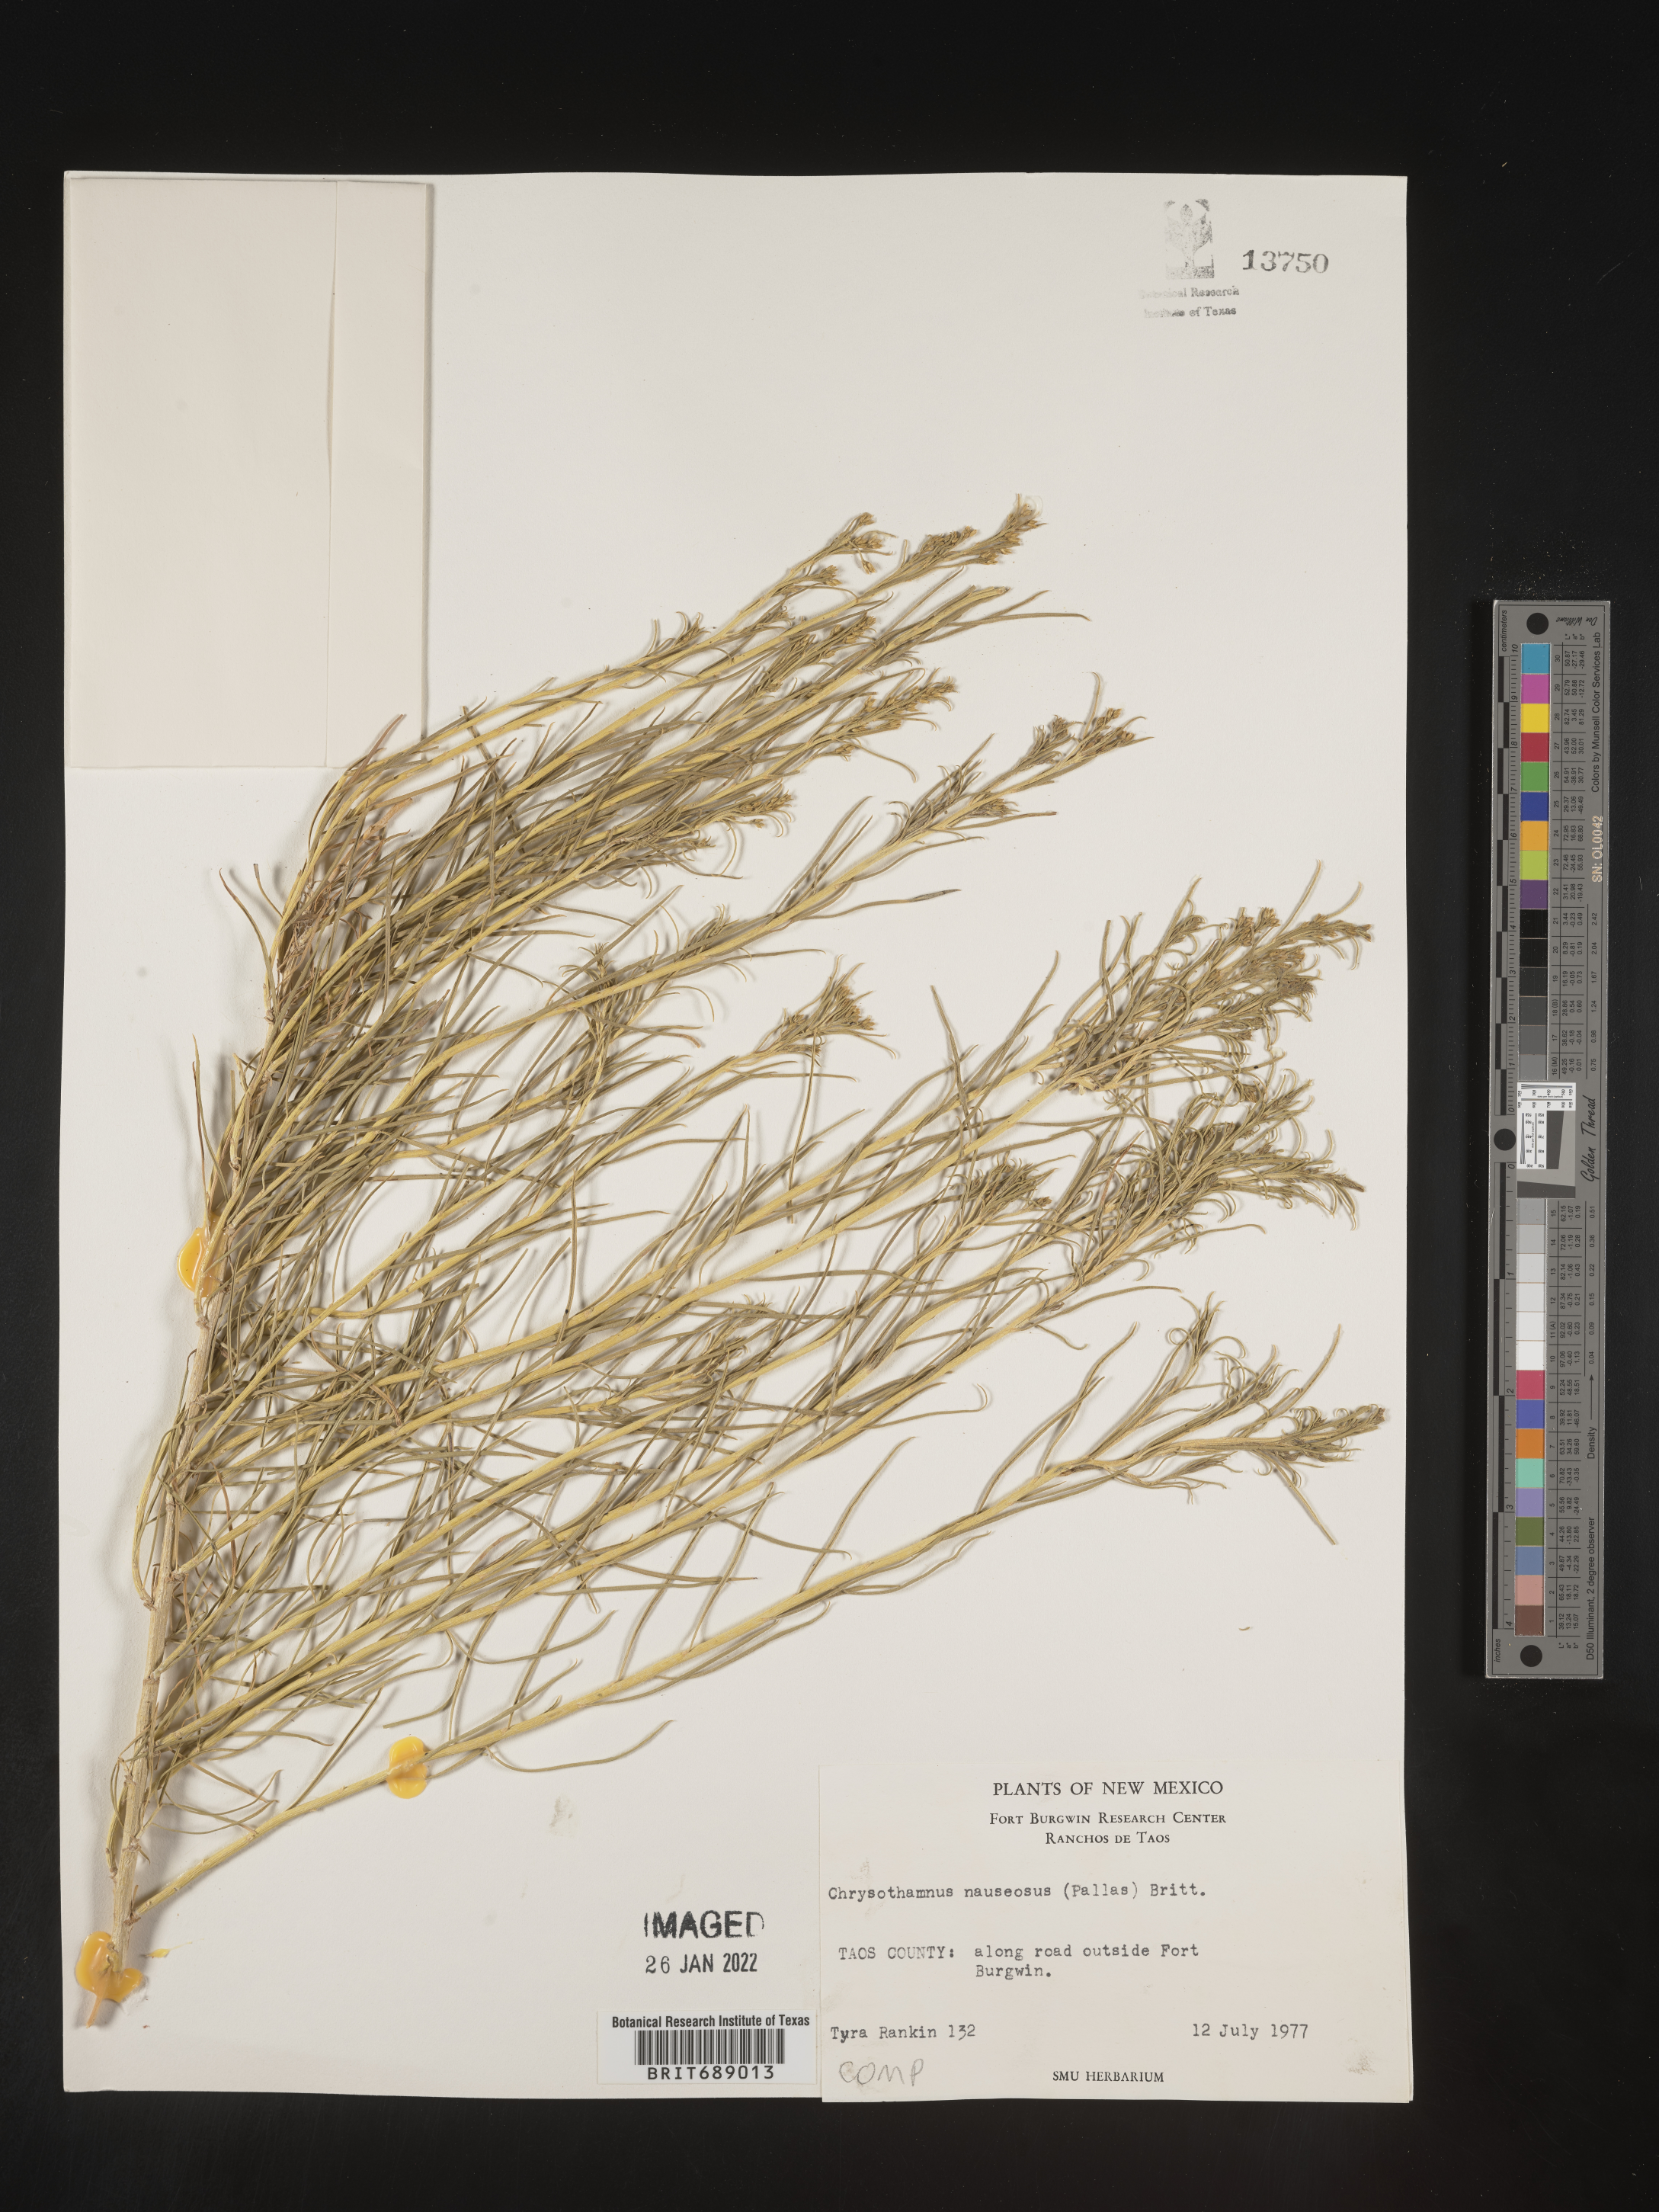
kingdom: Plantae
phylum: Tracheophyta
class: Magnoliopsida
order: Asterales
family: Asteraceae
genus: Ericameria
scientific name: Ericameria nauseosa
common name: Rubber rabbitbrush
